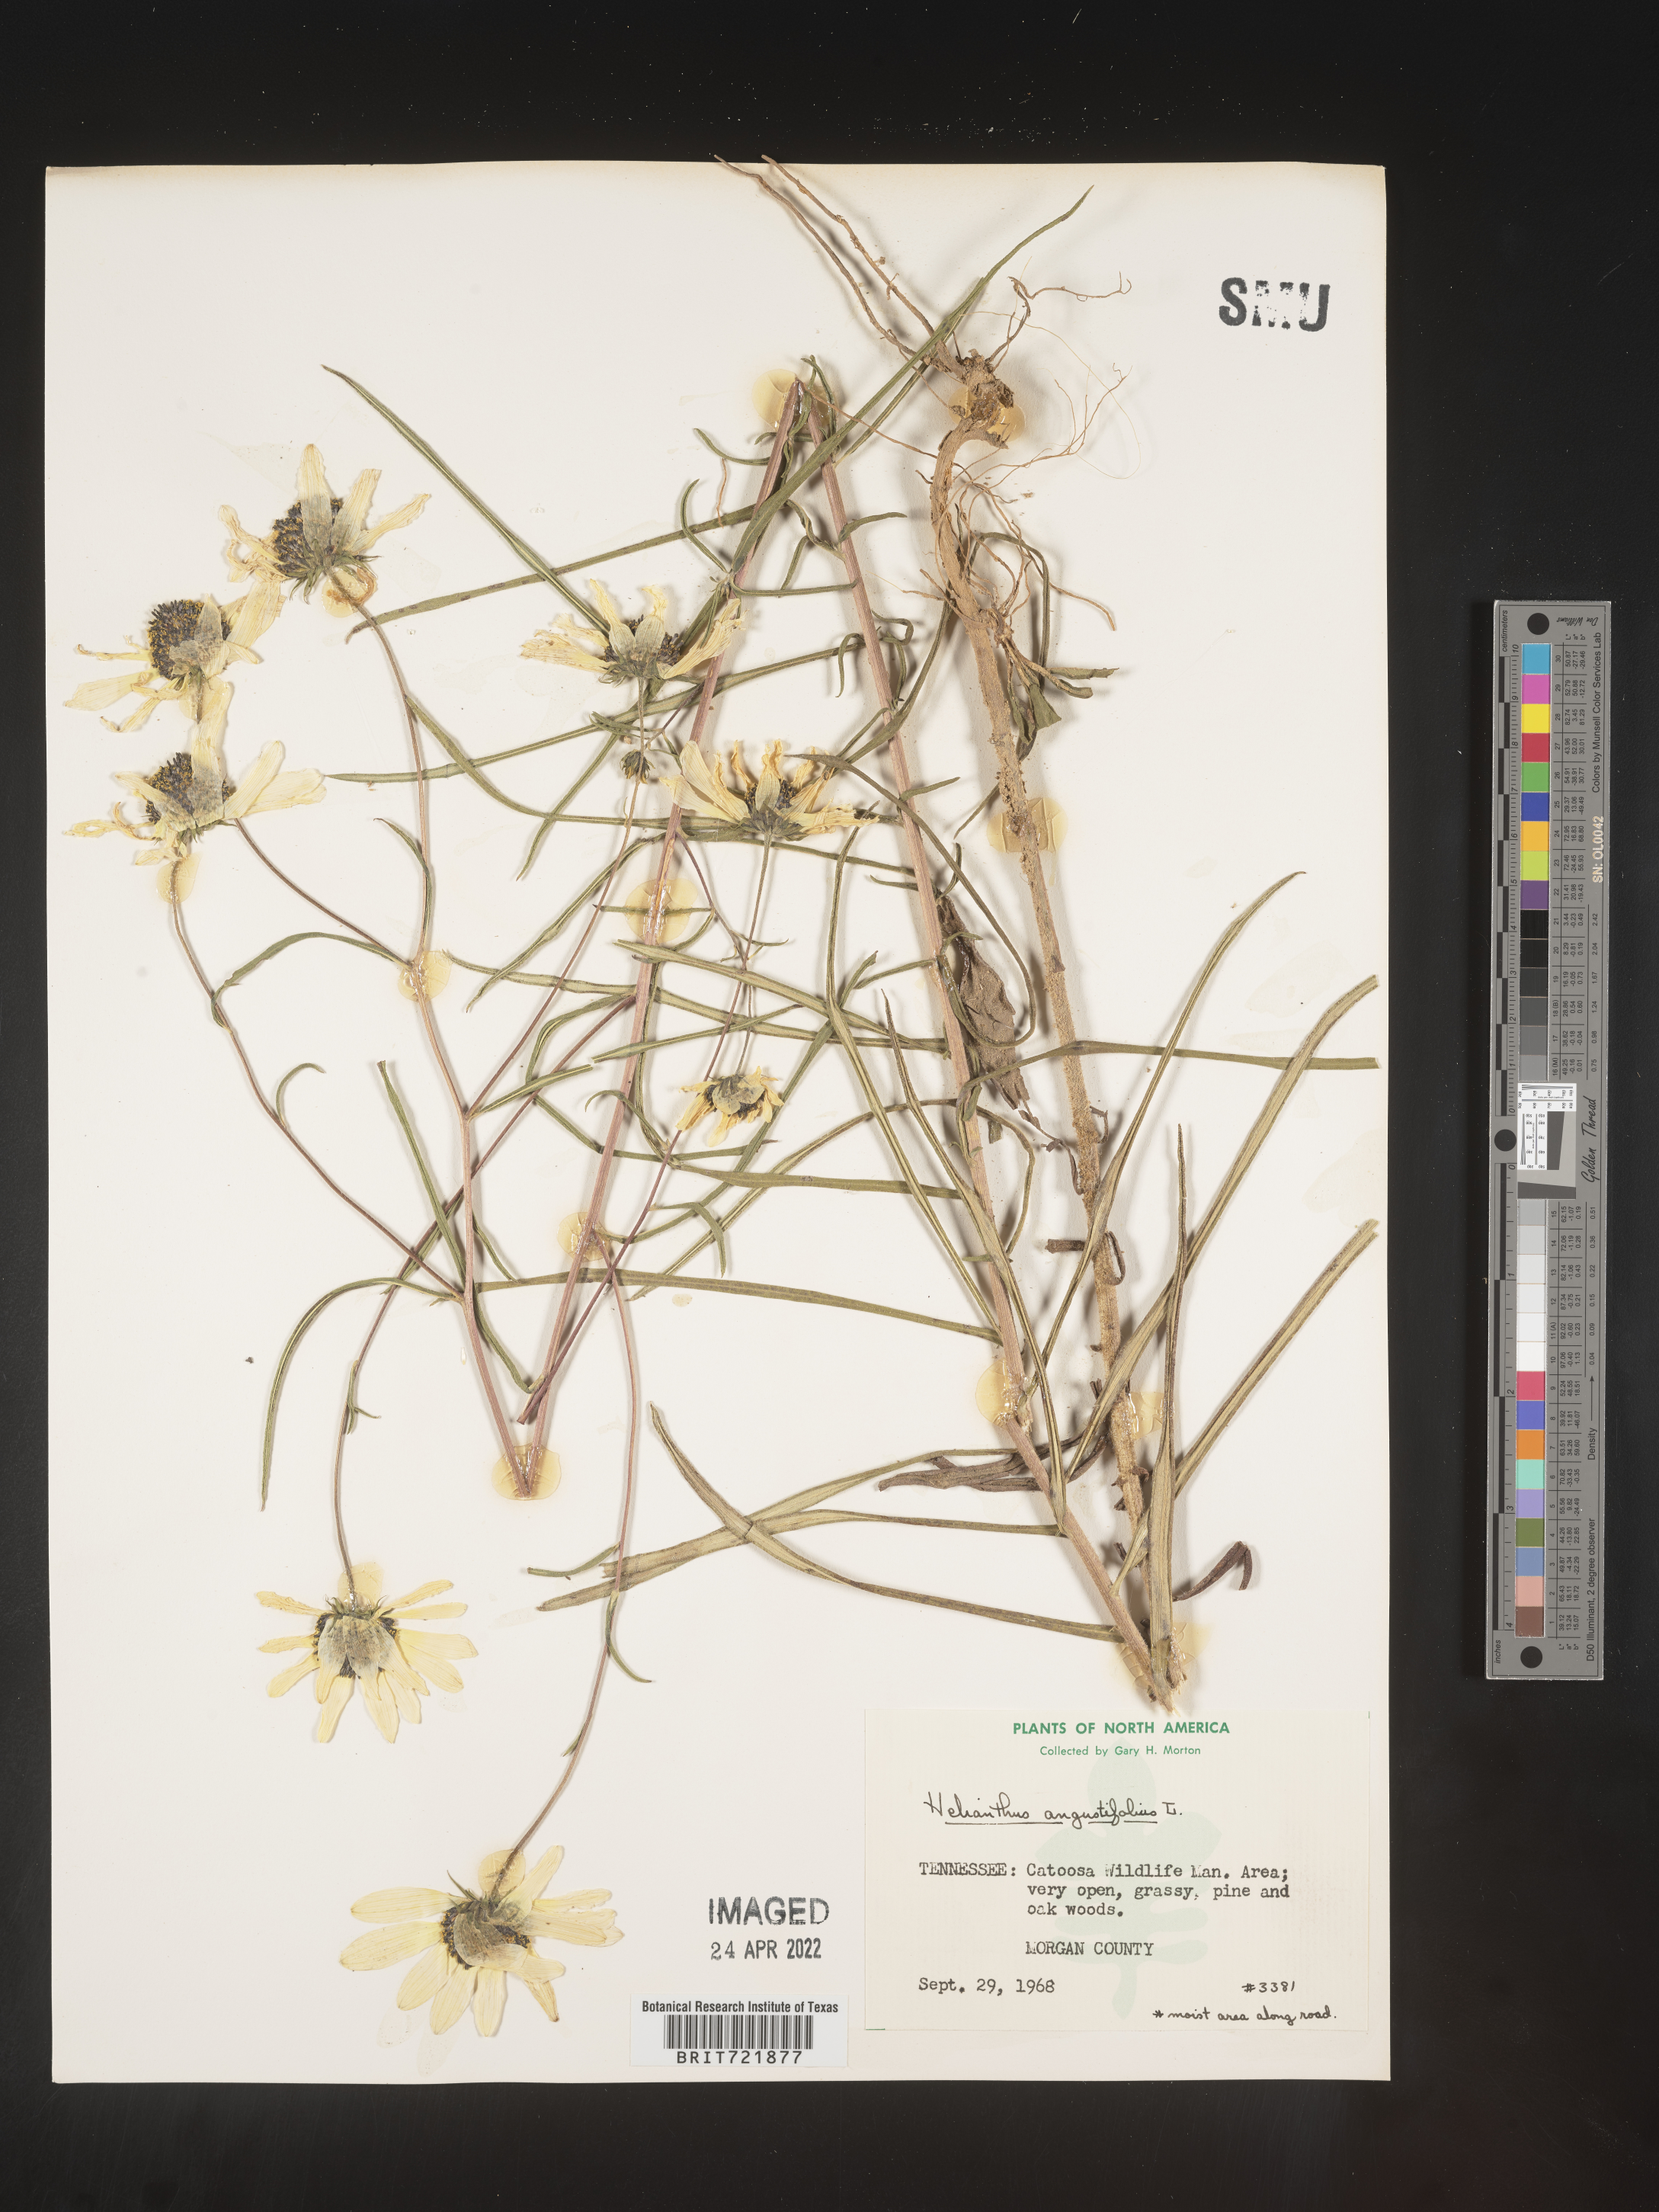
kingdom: Plantae
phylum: Tracheophyta
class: Magnoliopsida
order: Asterales
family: Asteraceae
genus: Helianthus
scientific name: Helianthus angustifolius
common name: Swamp sunflower
